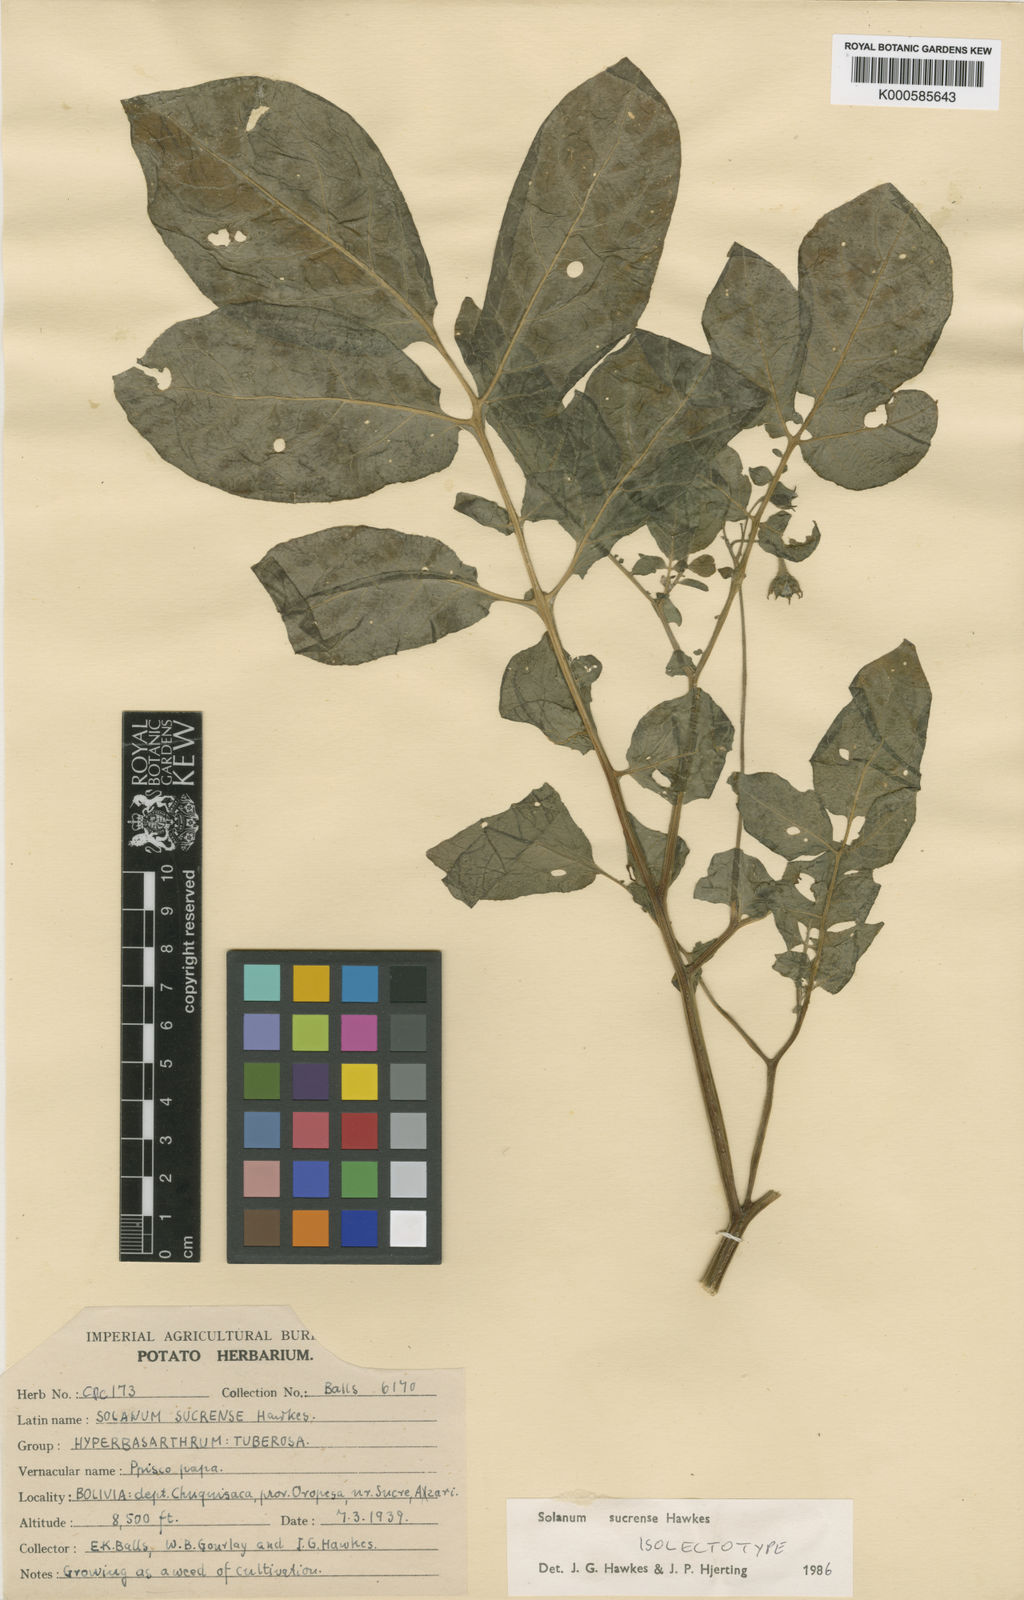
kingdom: Plantae
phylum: Tracheophyta
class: Magnoliopsida
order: Solanales
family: Solanaceae
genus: Solanum
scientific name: Solanum brevicaule
